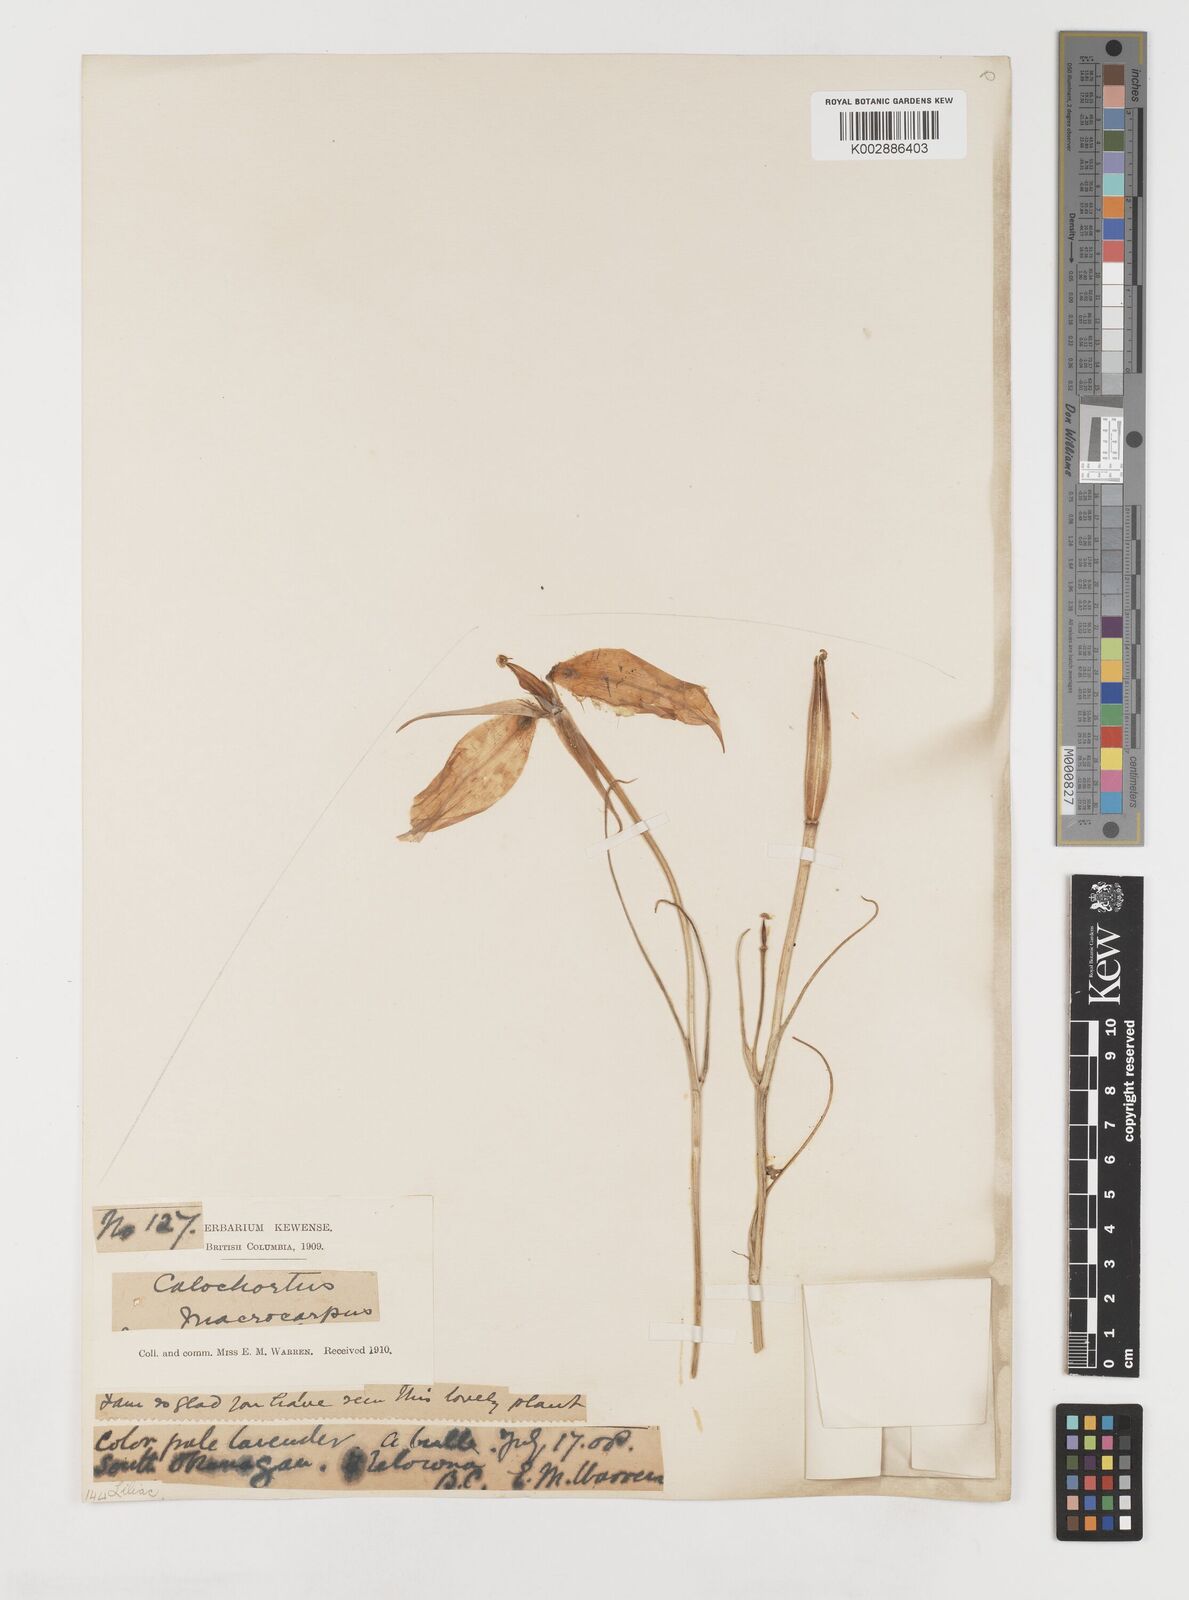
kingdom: Plantae
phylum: Tracheophyta
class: Liliopsida
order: Liliales
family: Liliaceae
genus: Calochortus
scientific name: Calochortus macrocarpus
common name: Green-band mariposa lily
